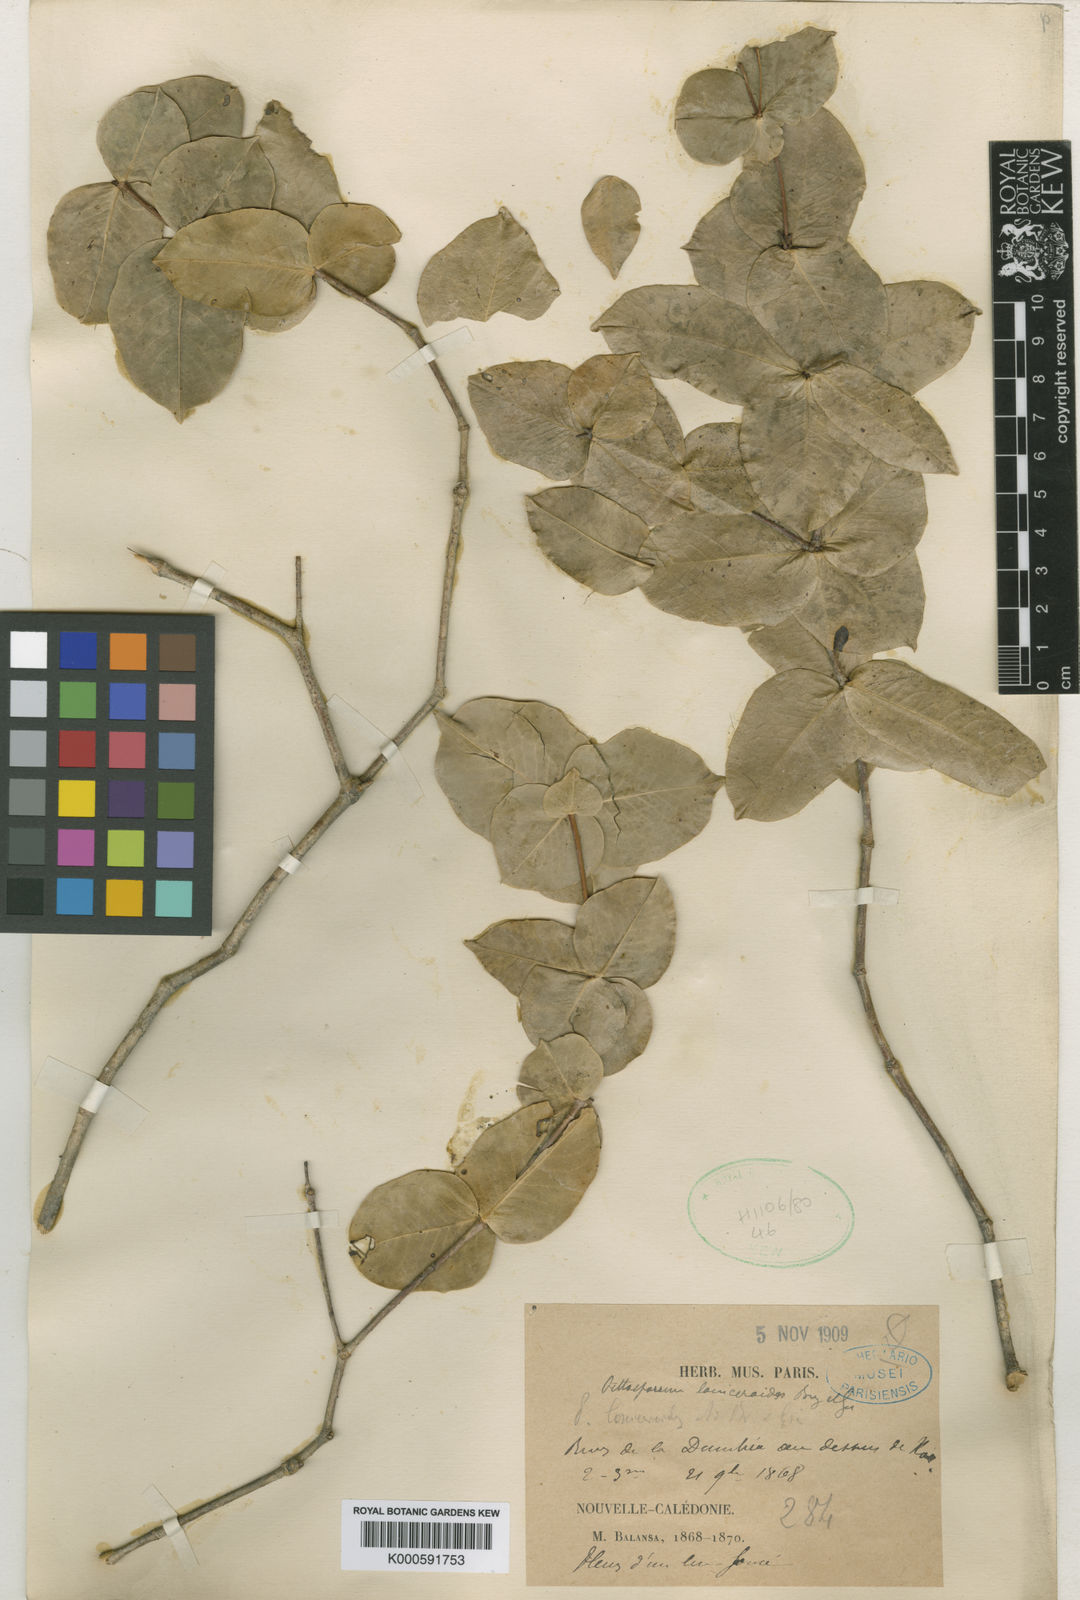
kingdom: Plantae
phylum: Tracheophyta
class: Magnoliopsida
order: Apiales
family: Pittosporaceae
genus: Pittosporum
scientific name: Pittosporum loniceroides
